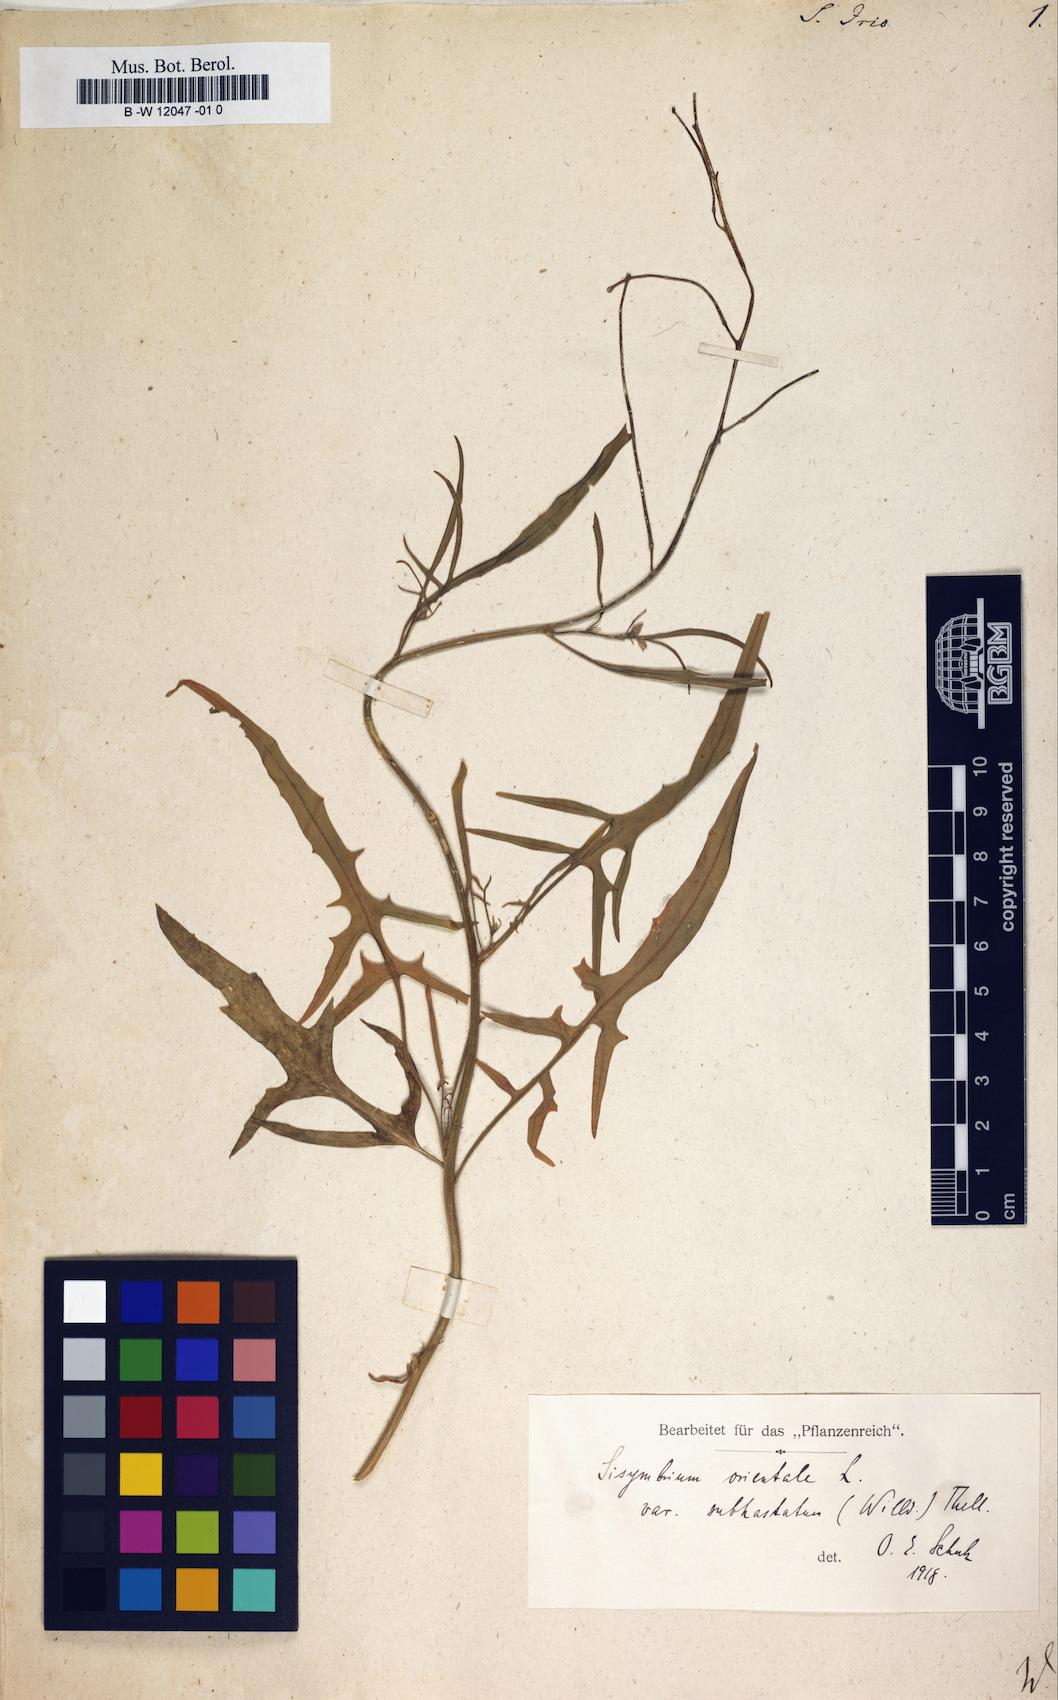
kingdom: Plantae
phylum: Tracheophyta
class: Magnoliopsida
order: Brassicales
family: Brassicaceae
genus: Sisymbrium
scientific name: Sisymbrium irio
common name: London rocket
